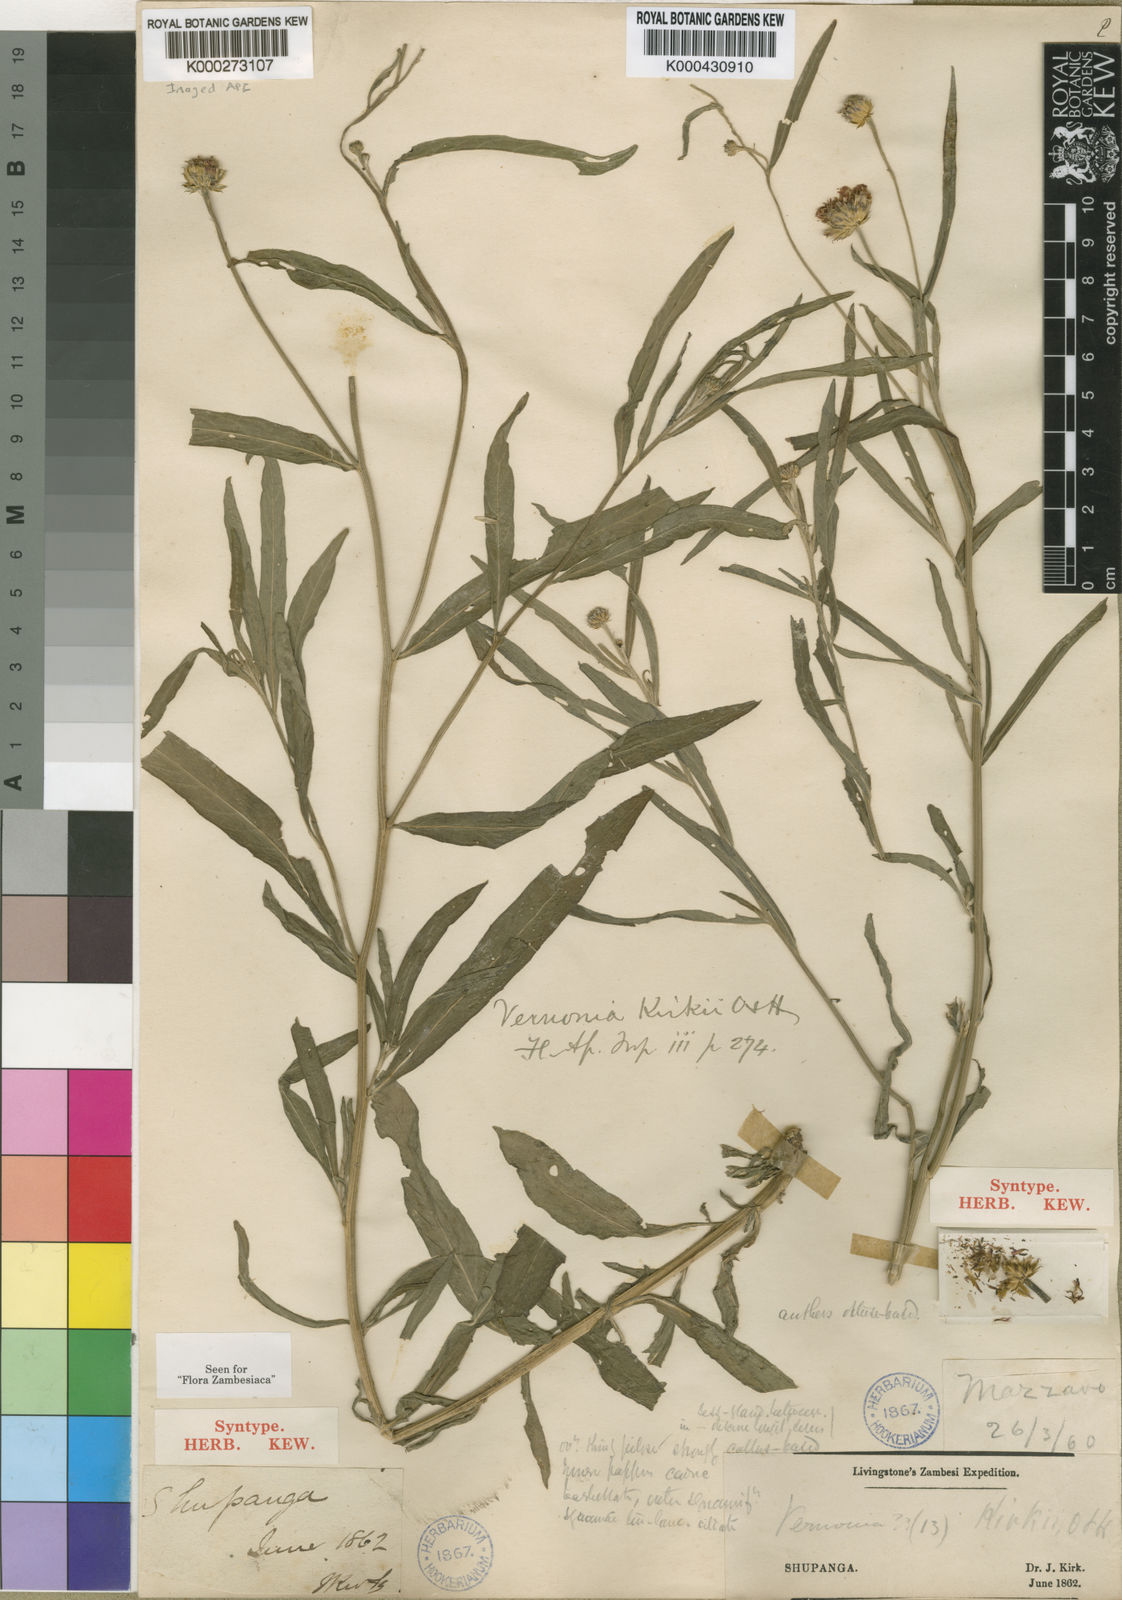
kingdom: Plantae
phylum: Tracheophyta
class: Magnoliopsida
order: Asterales
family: Asteraceae
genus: Vernonella
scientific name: Vernonella kirkii
